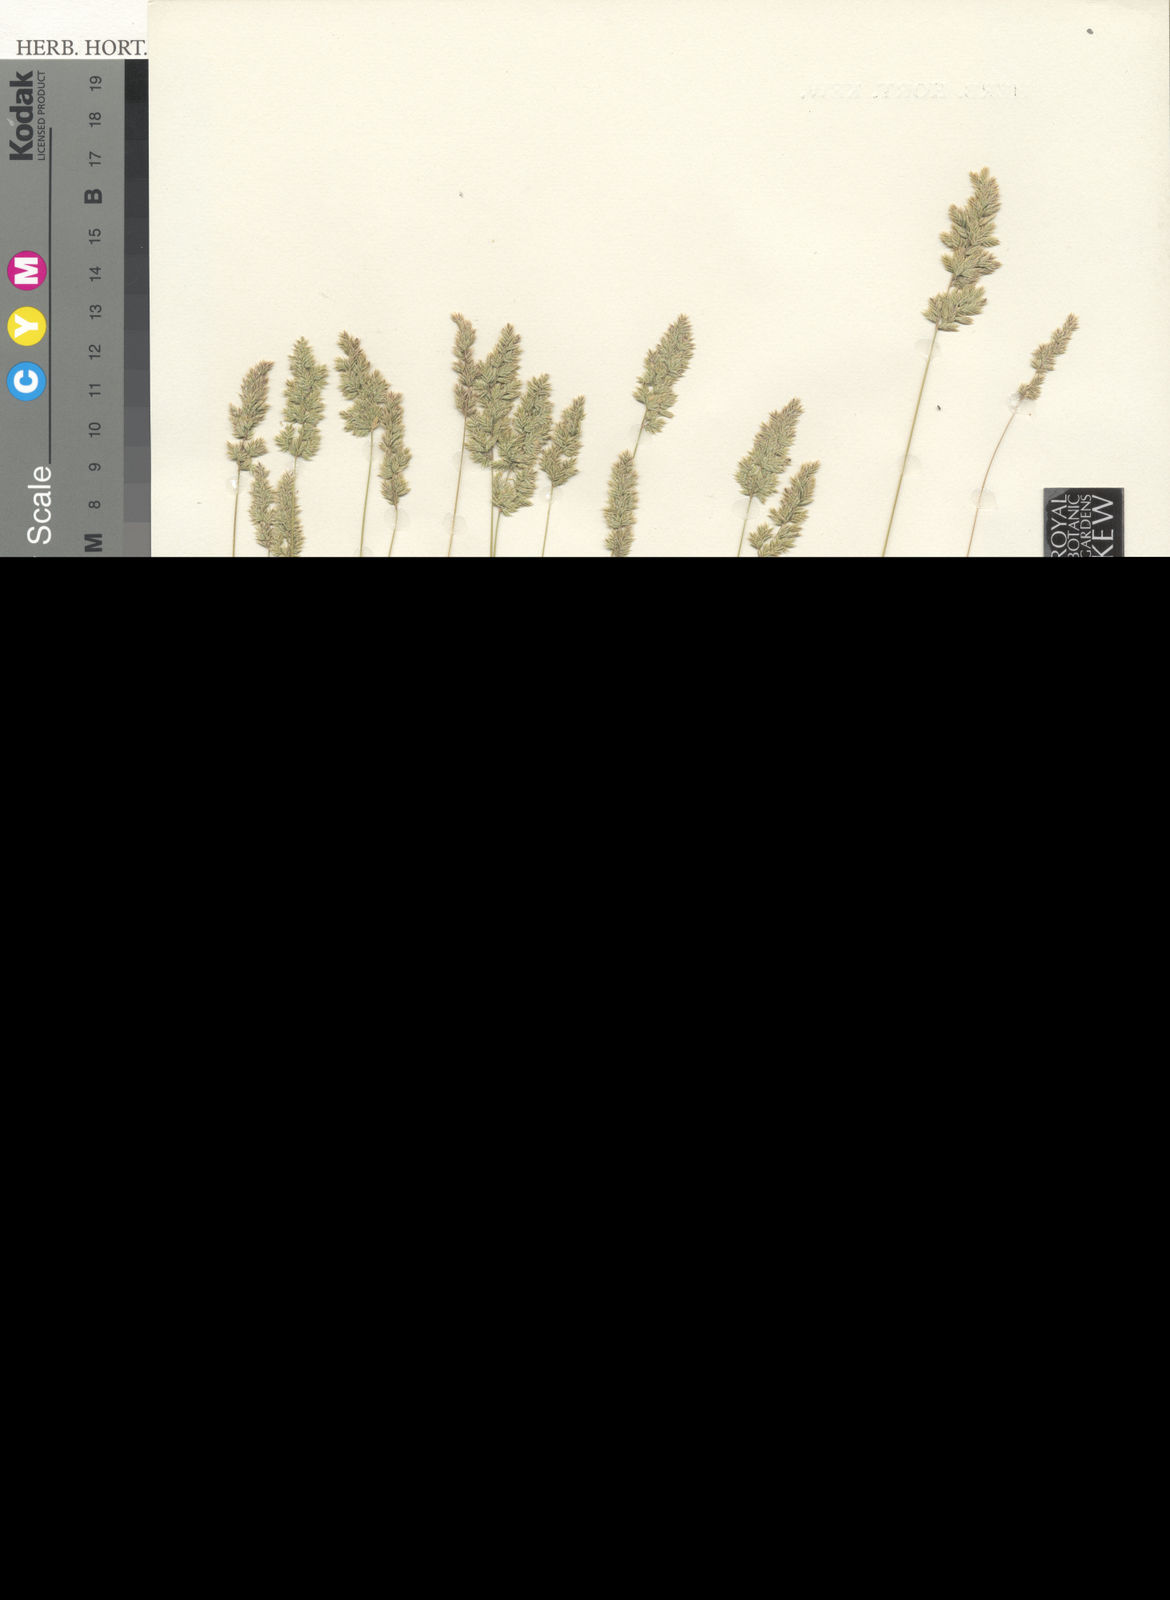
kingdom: Plantae
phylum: Tracheophyta
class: Liliopsida
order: Poales
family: Poaceae
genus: Poa
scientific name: Poa sinaica
